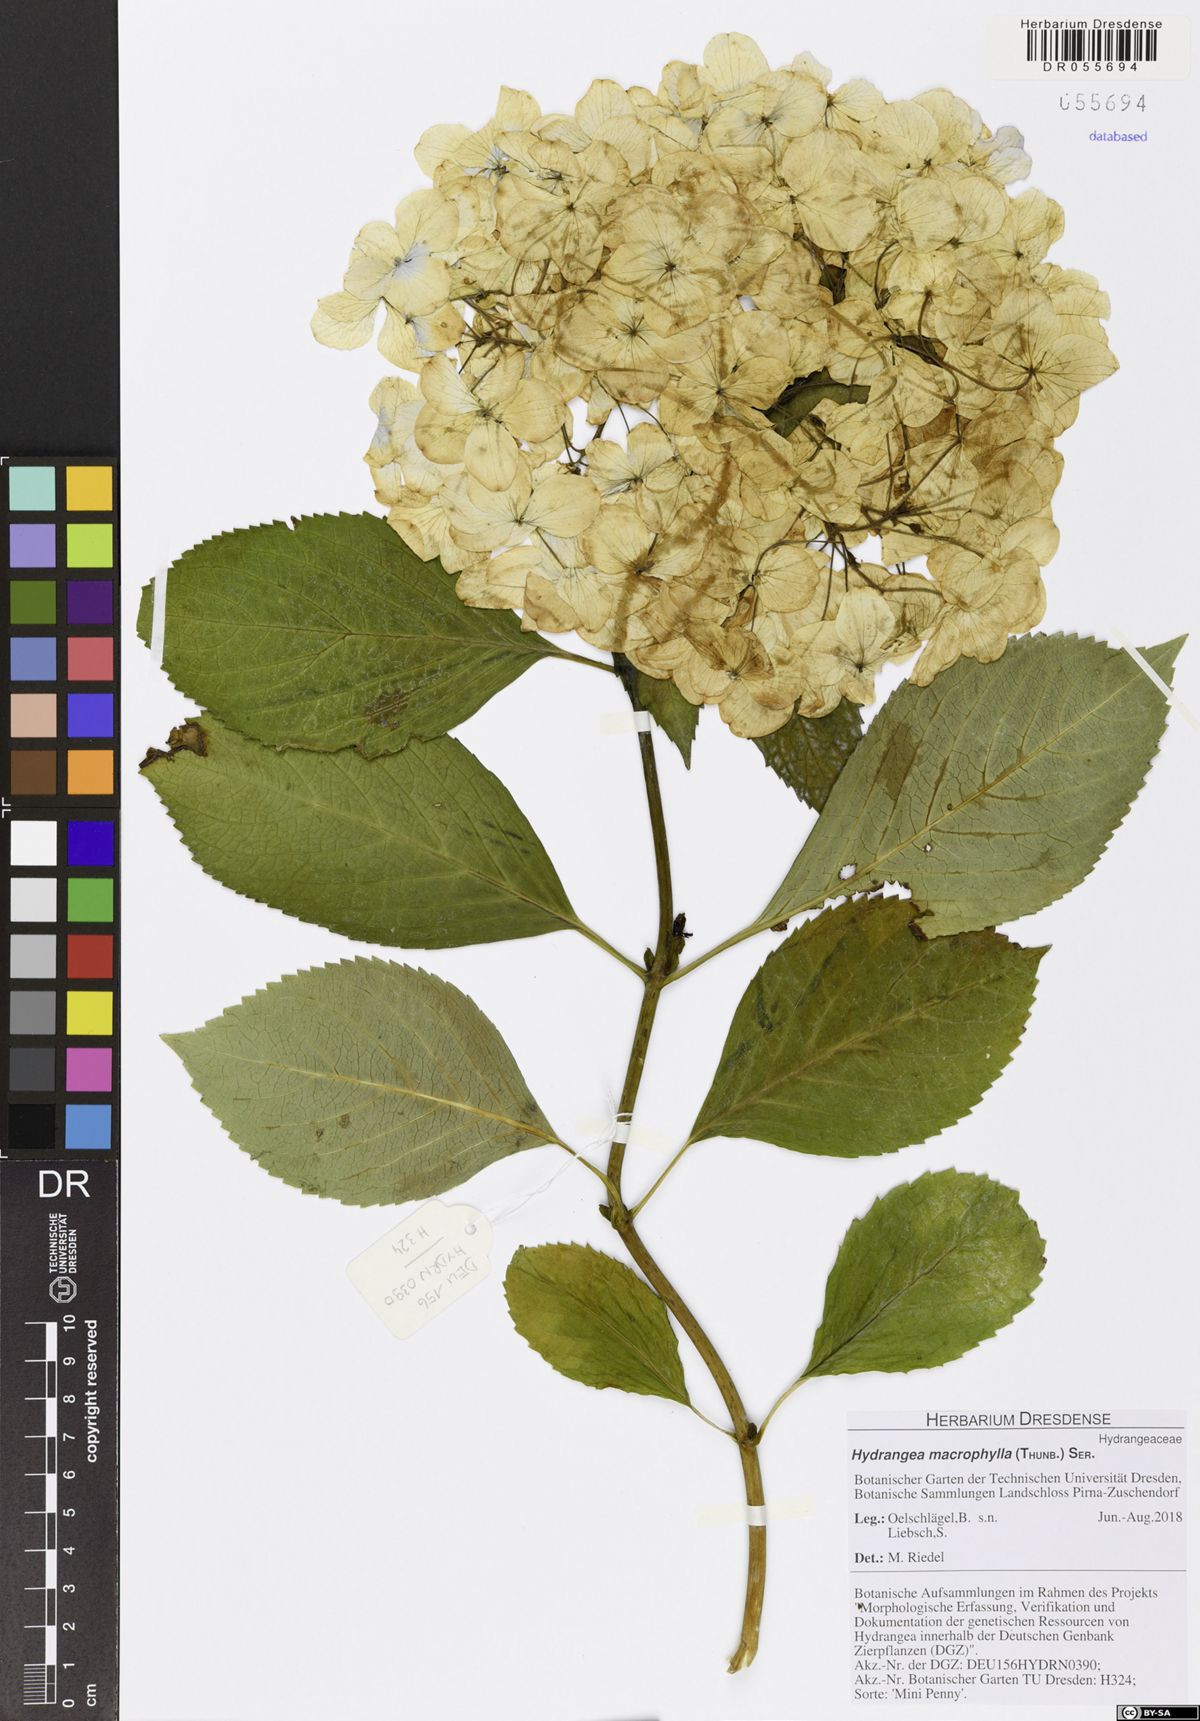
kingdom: Plantae
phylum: Tracheophyta
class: Magnoliopsida
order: Cornales
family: Hydrangeaceae
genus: Hydrangea
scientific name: Hydrangea macrophylla
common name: Hydrangea
